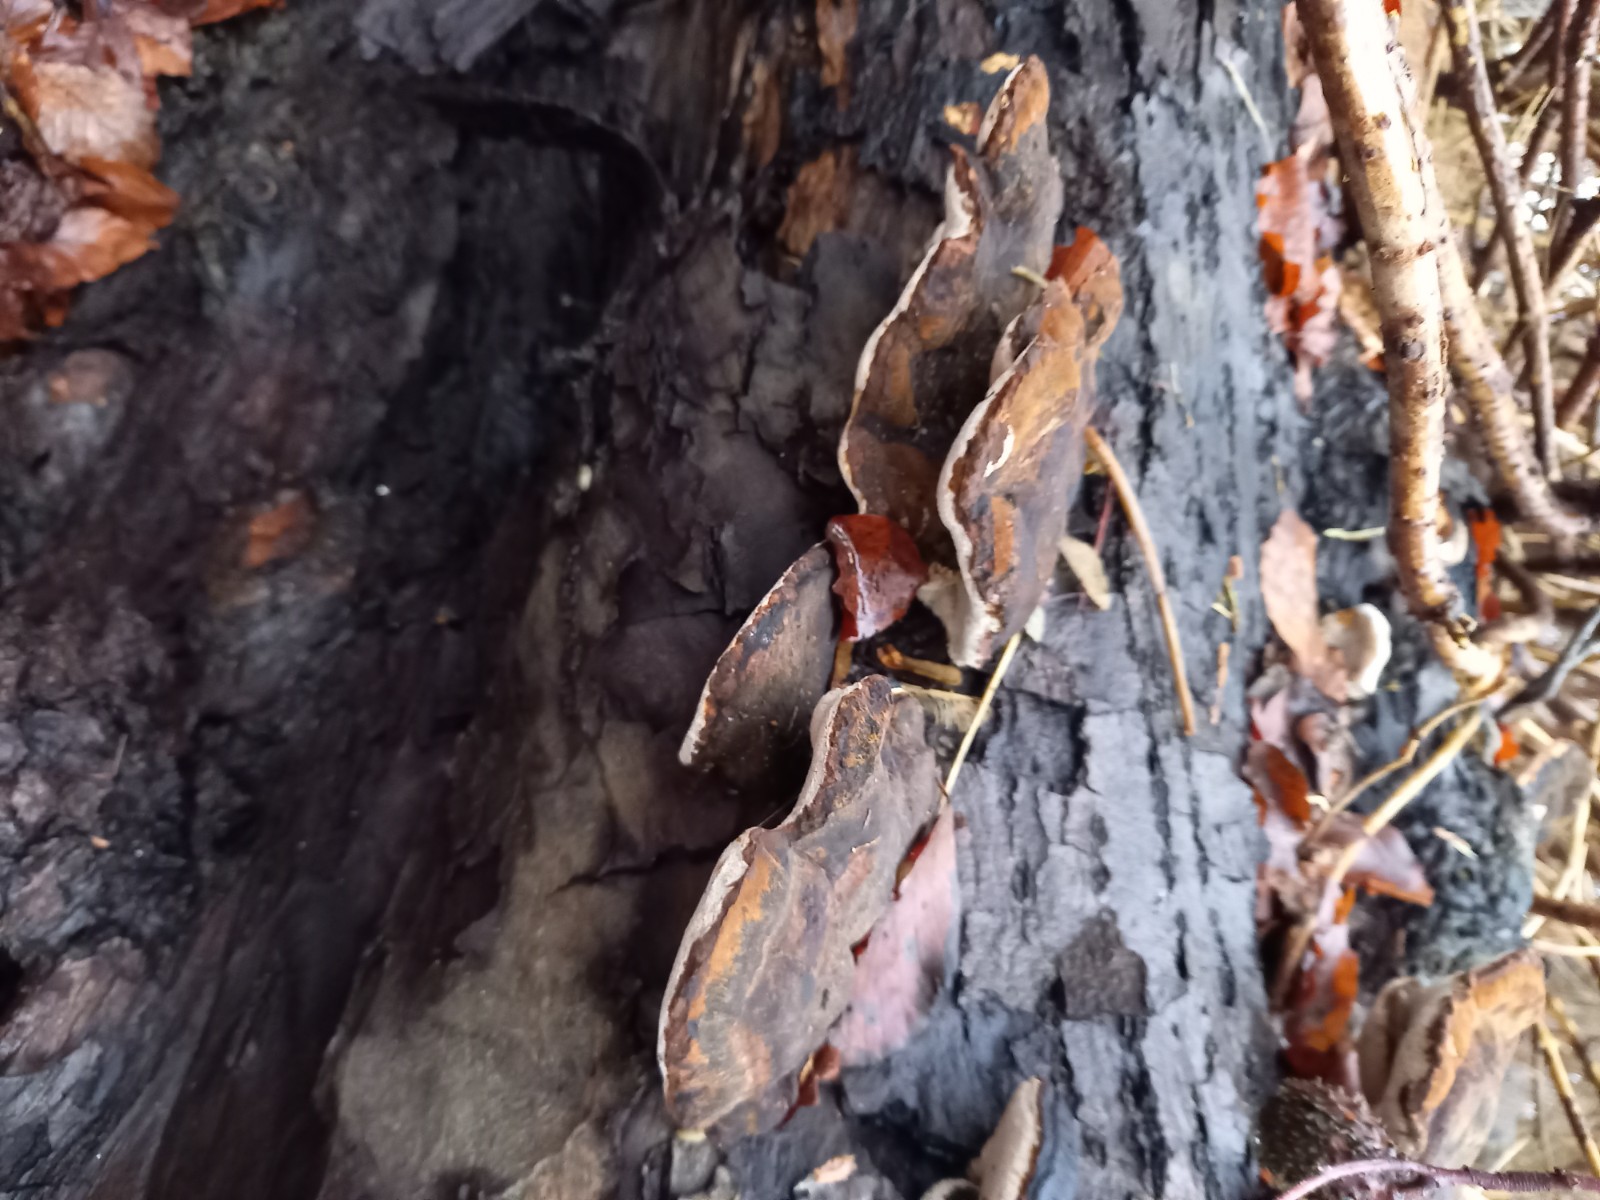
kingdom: Fungi
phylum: Basidiomycota
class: Agaricomycetes
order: Polyporales
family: Ischnodermataceae
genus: Ischnoderma
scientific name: Ischnoderma resinosum
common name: løv-tjæreporesvamp
